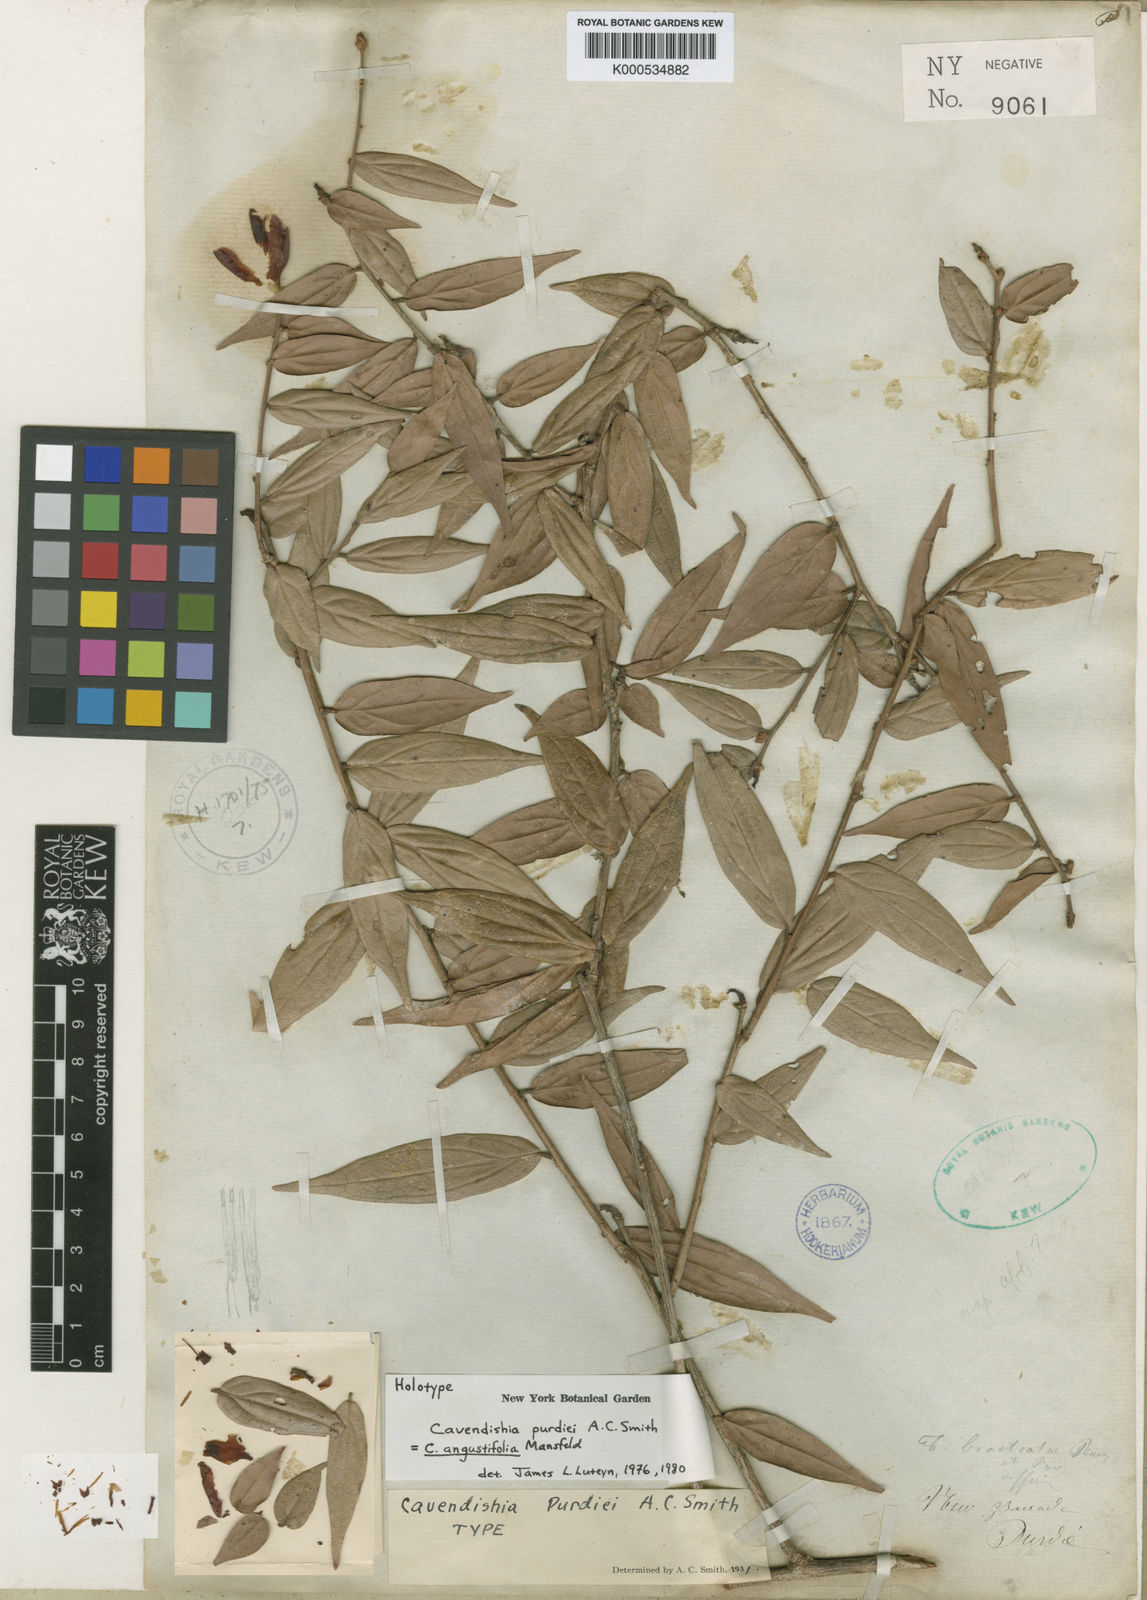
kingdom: Plantae
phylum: Tracheophyta
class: Magnoliopsida
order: Ericales
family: Ericaceae
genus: Cavendishia
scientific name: Cavendishia angustifolia
